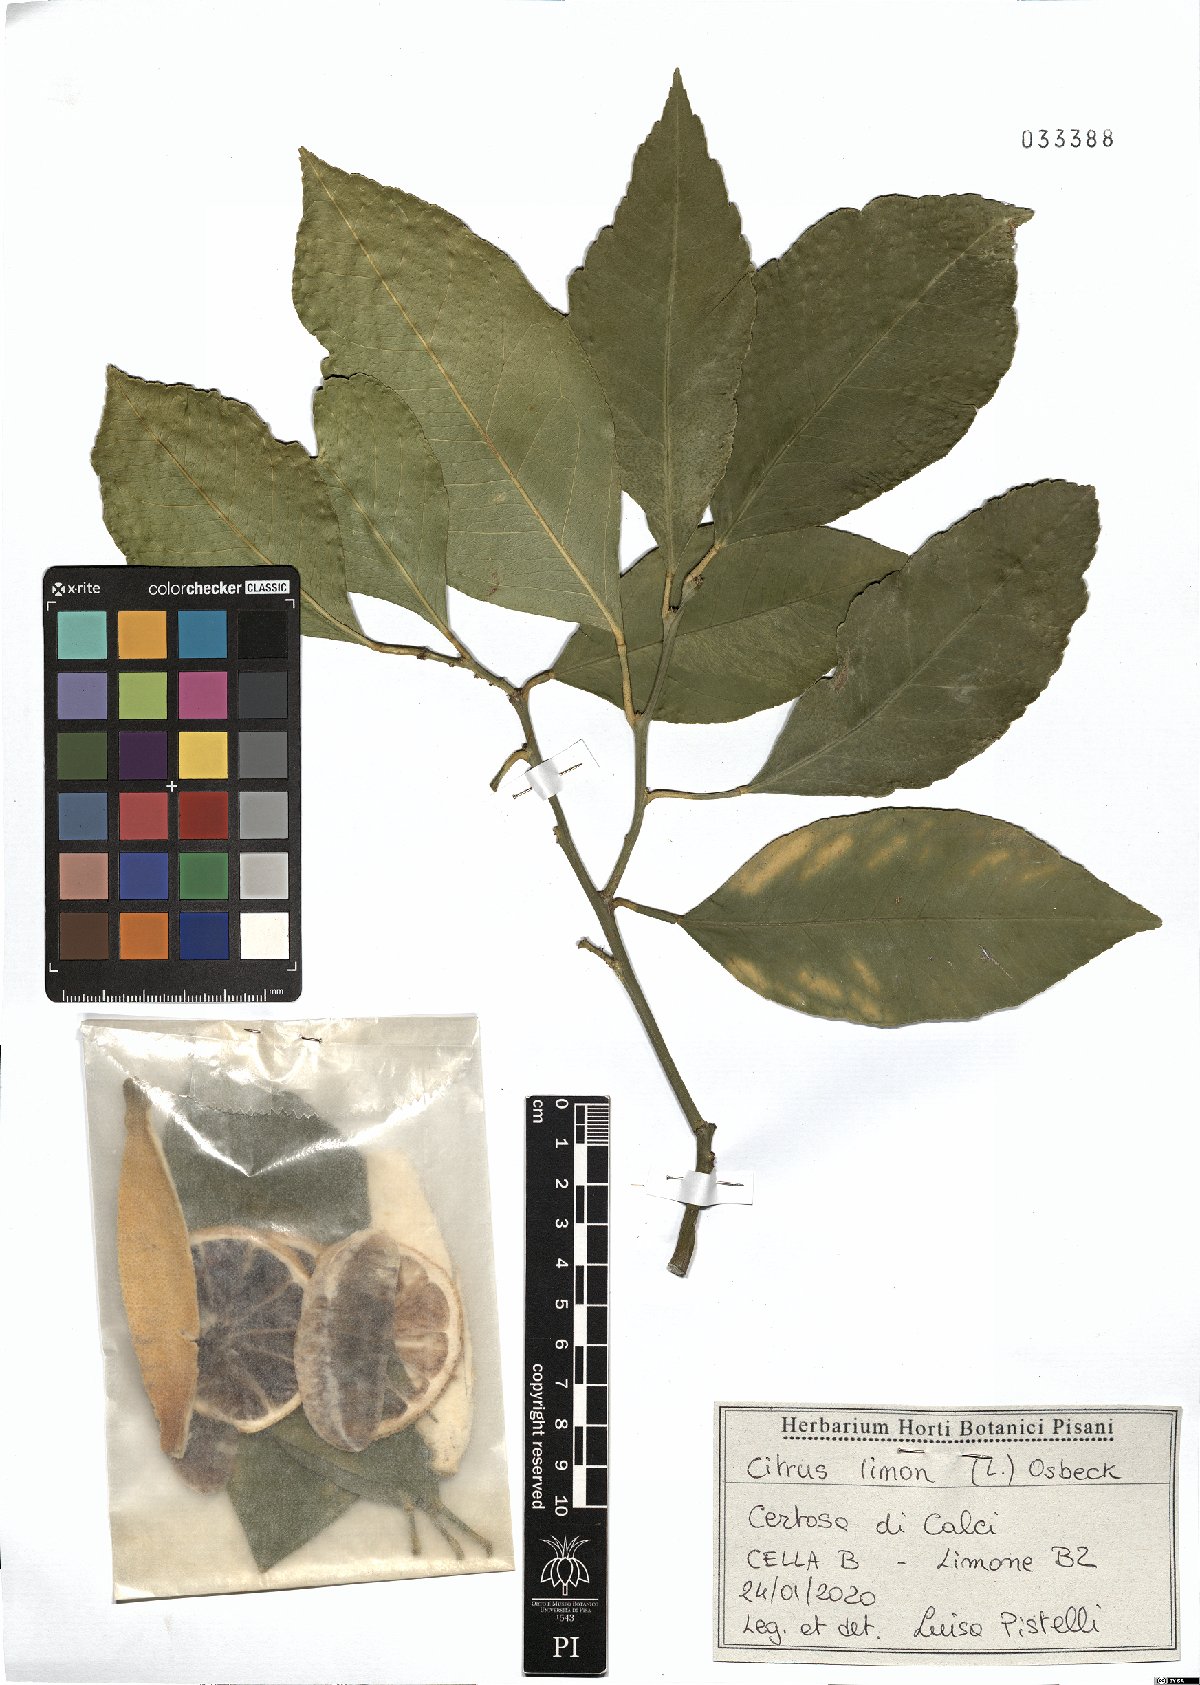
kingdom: Plantae
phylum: Tracheophyta
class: Magnoliopsida
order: Sapindales
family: Rutaceae
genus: Citrus
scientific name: Citrus limon
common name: Lemon
